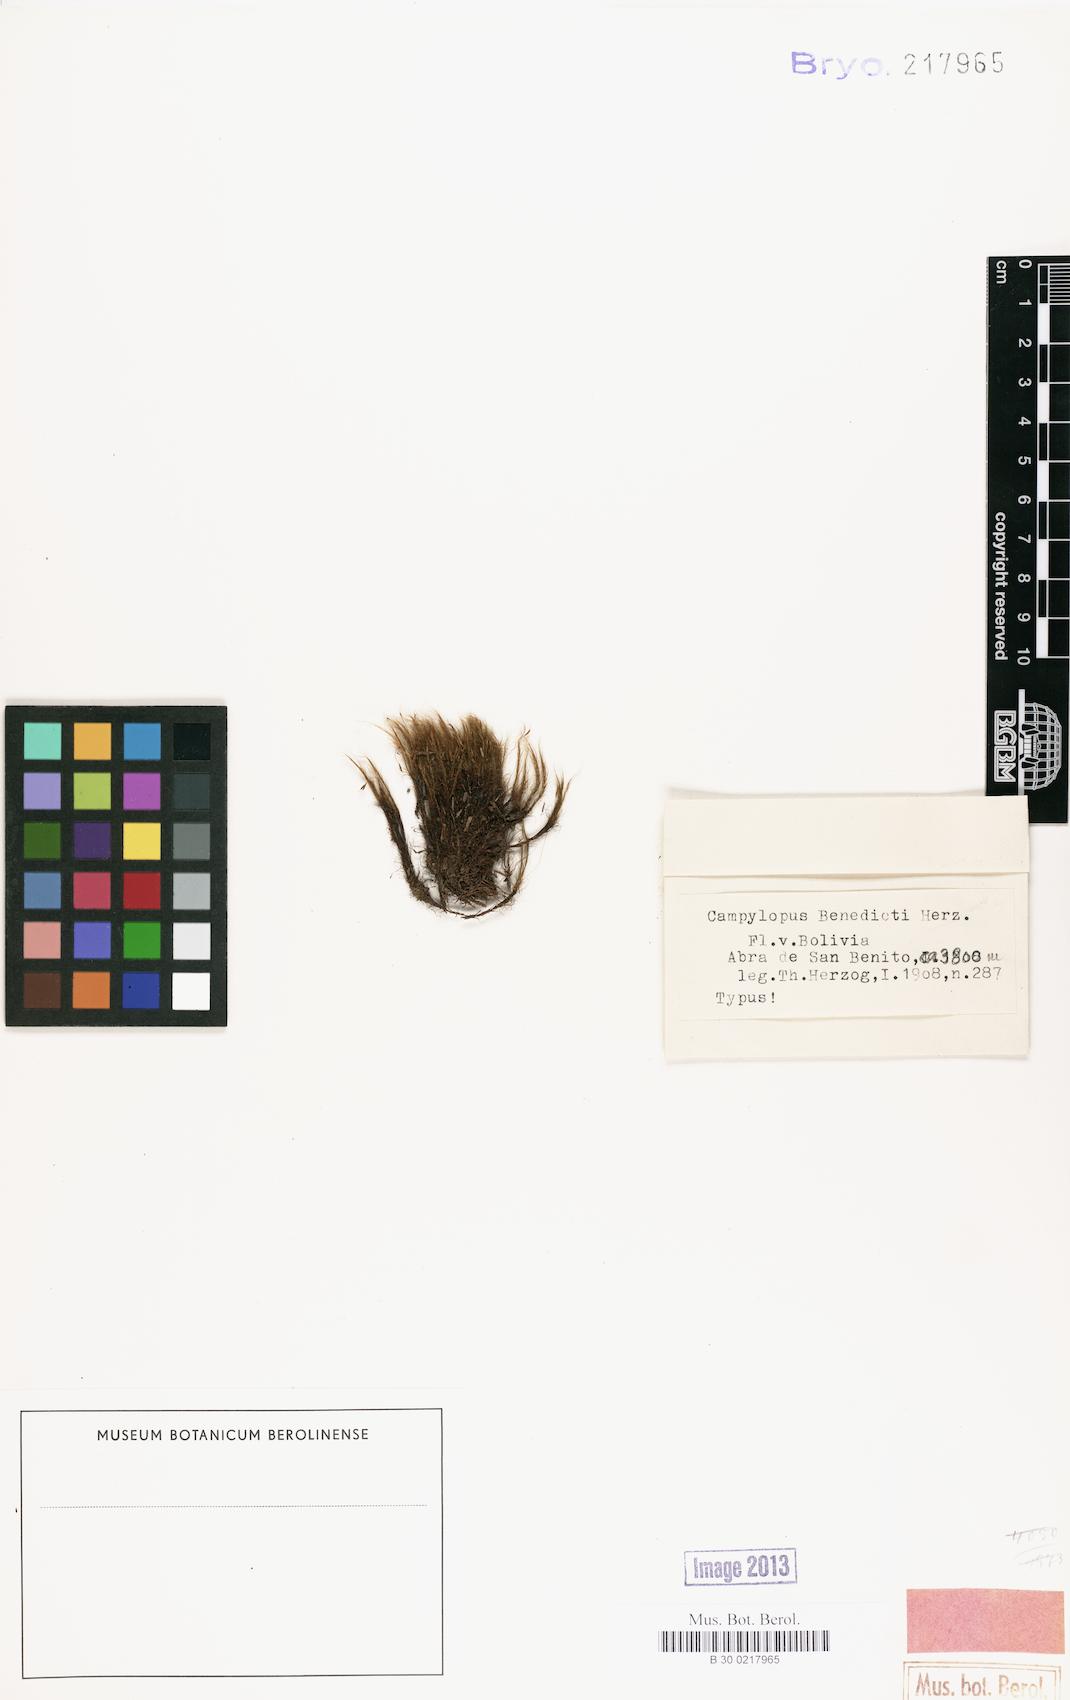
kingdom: Plantae
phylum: Bryophyta
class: Bryopsida
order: Dicranales
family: Leucobryaceae
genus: Campylopus
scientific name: Campylopus reflexisetus
